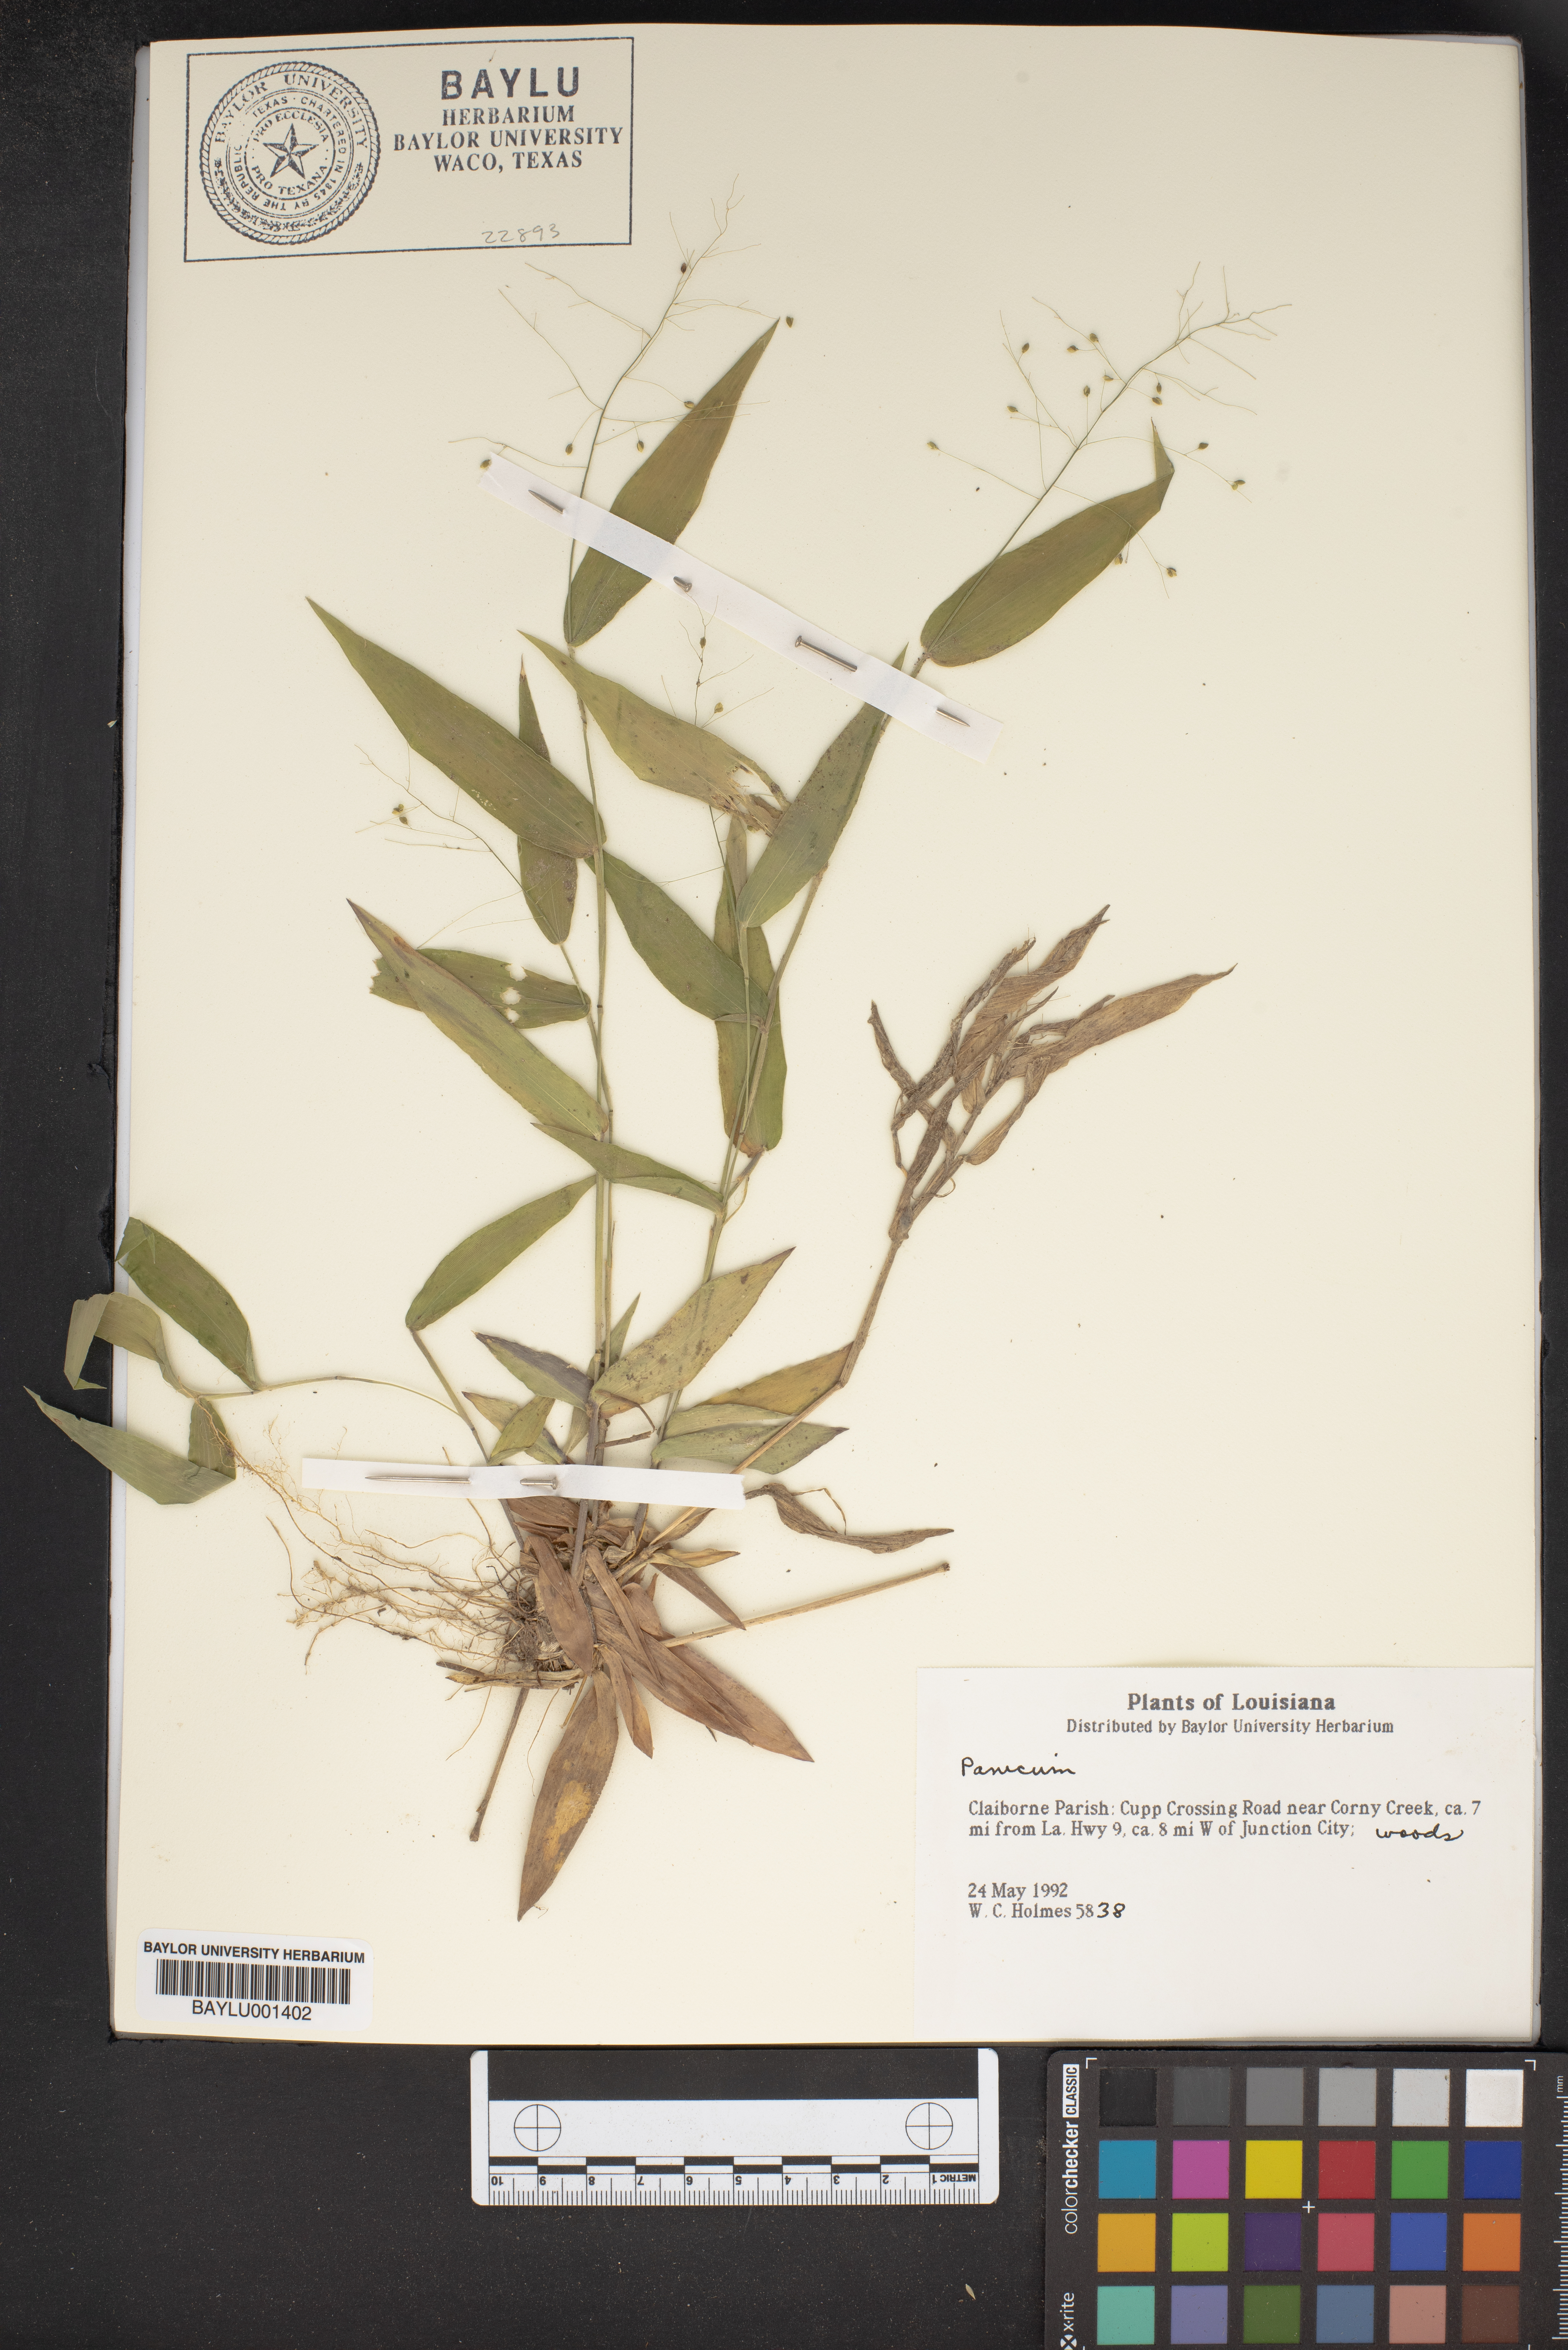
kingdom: Plantae
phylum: Tracheophyta
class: Liliopsida
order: Poales
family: Poaceae
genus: Panicum
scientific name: Panicum
